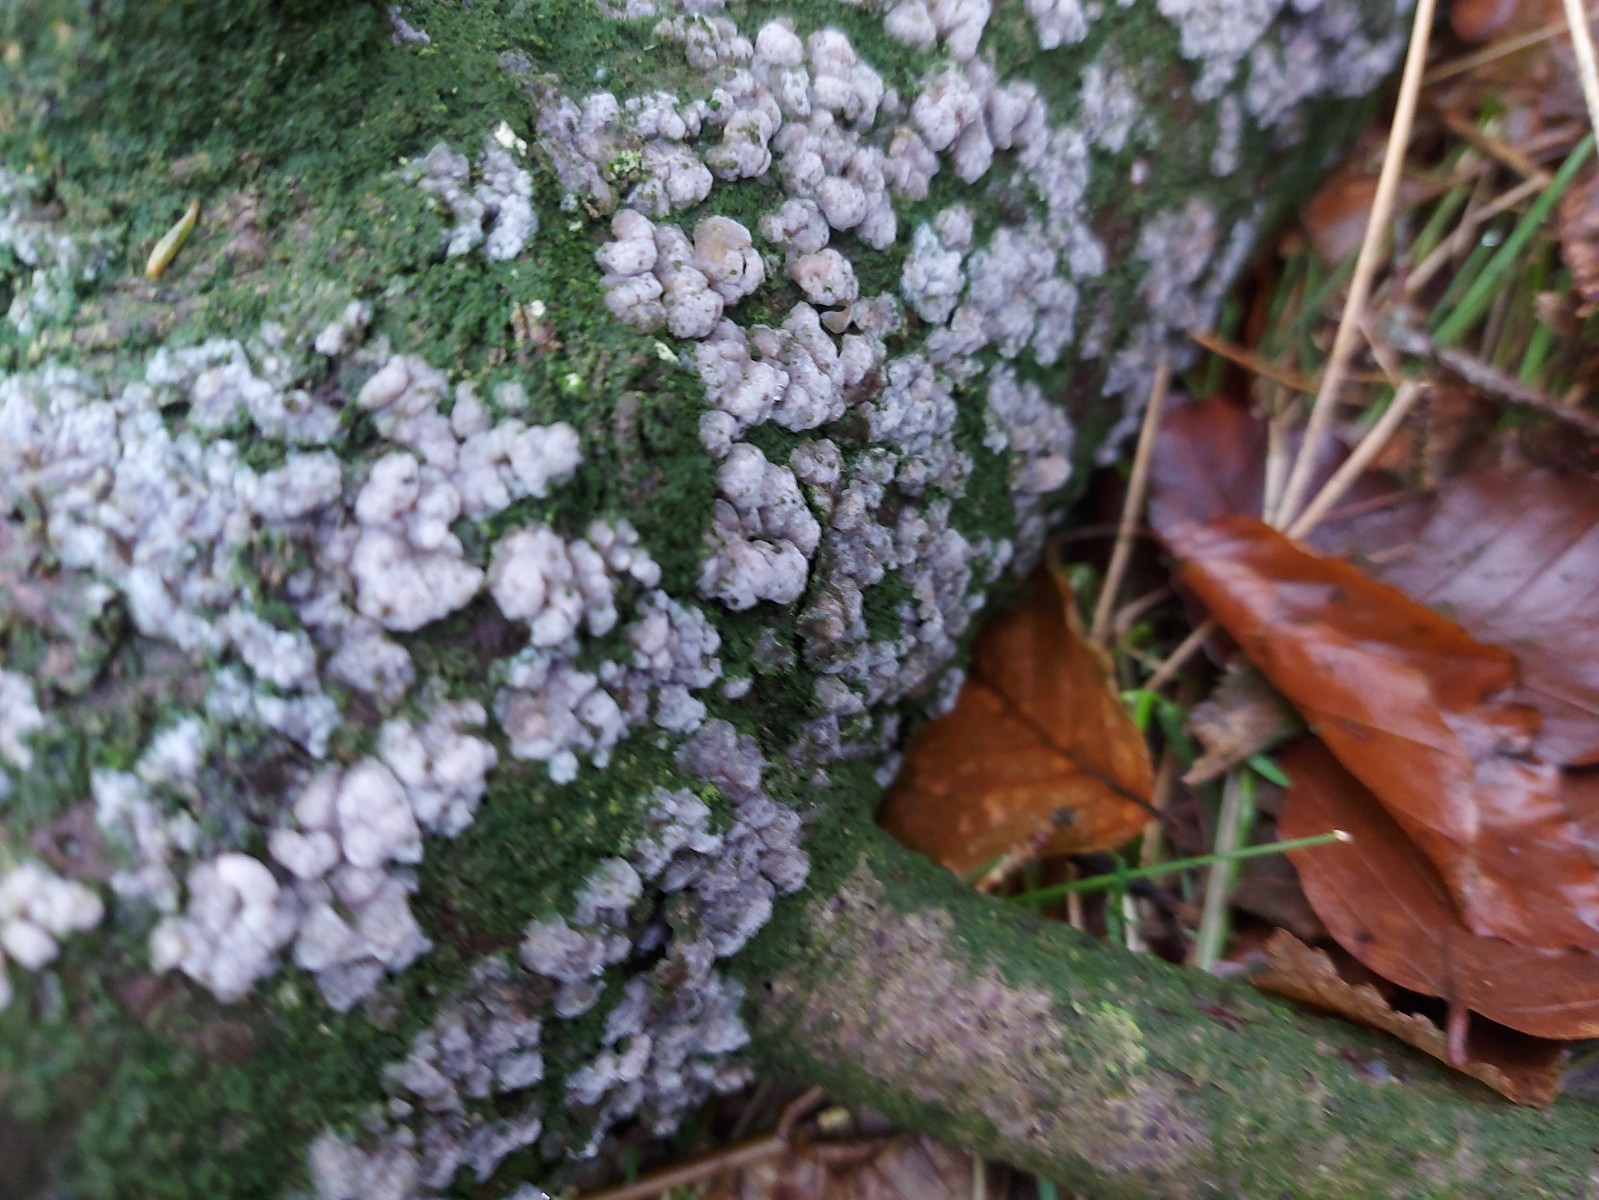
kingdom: Fungi
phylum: Basidiomycota
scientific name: Basidiomycota
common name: basidiesvampe
